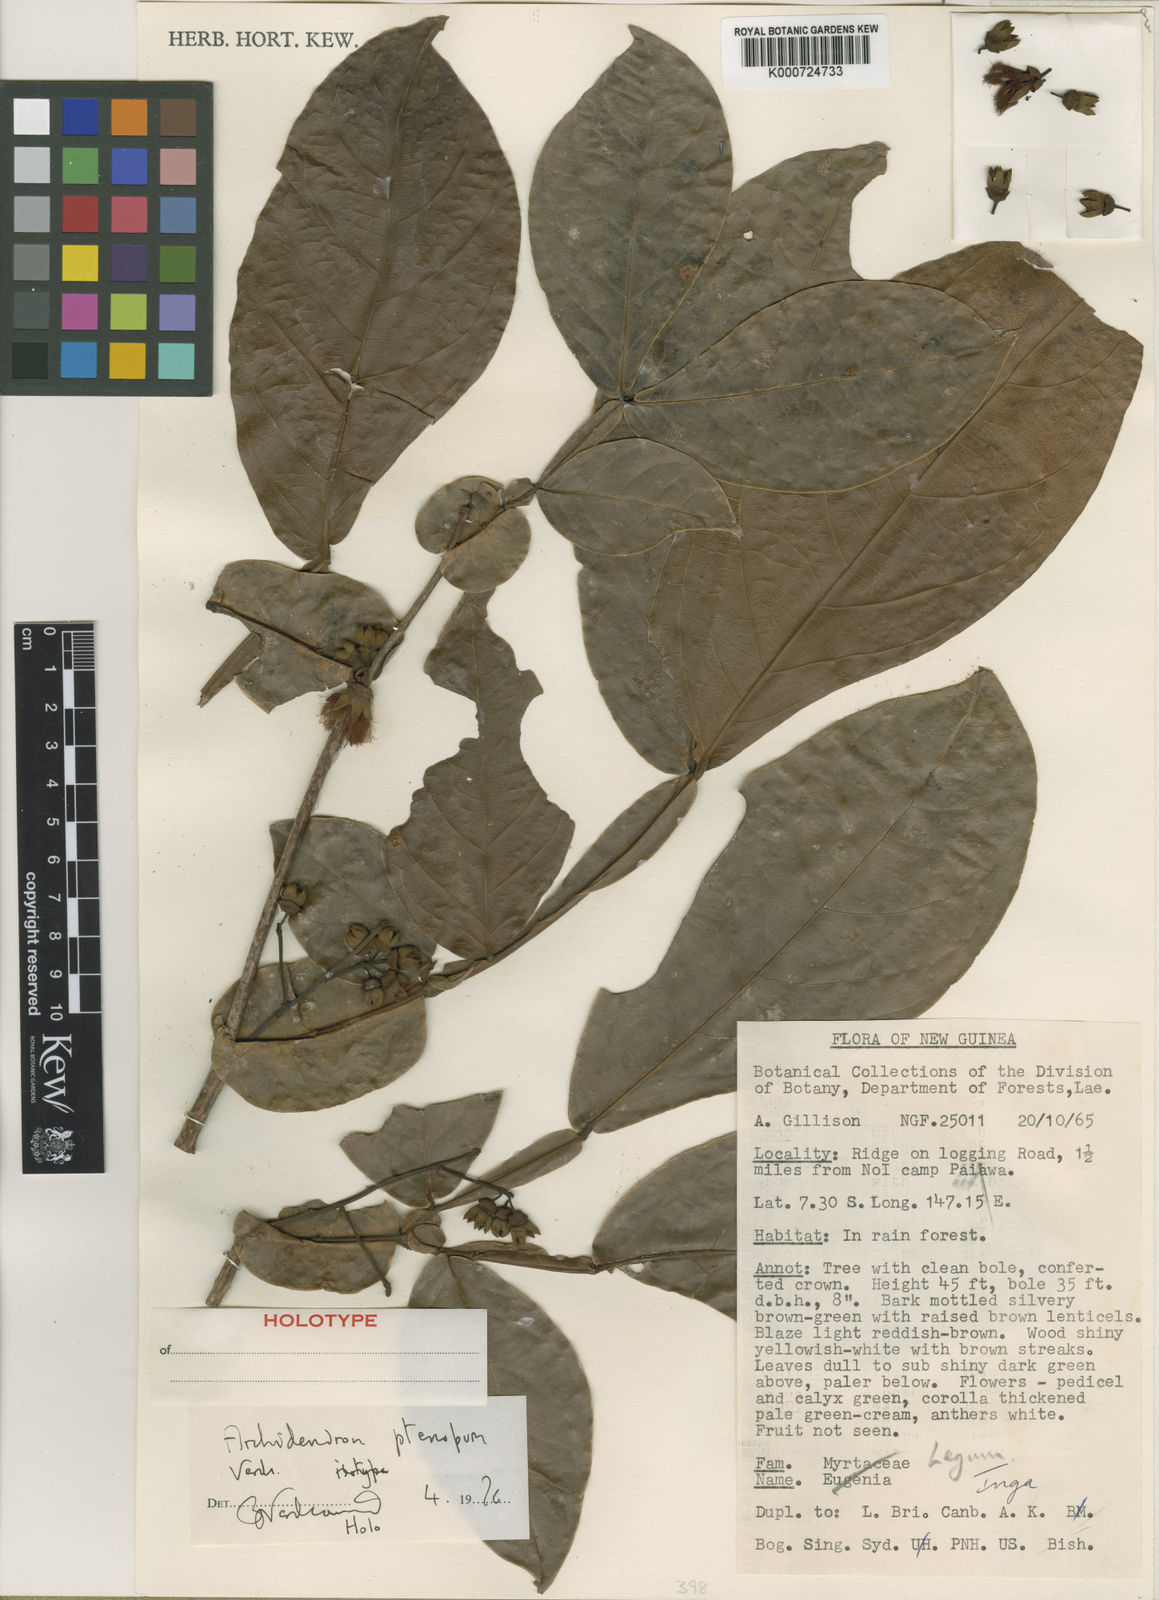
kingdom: Plantae
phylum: Tracheophyta
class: Magnoliopsida
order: Fabales
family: Fabaceae
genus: Archidendron
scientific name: Archidendron ptenopum
